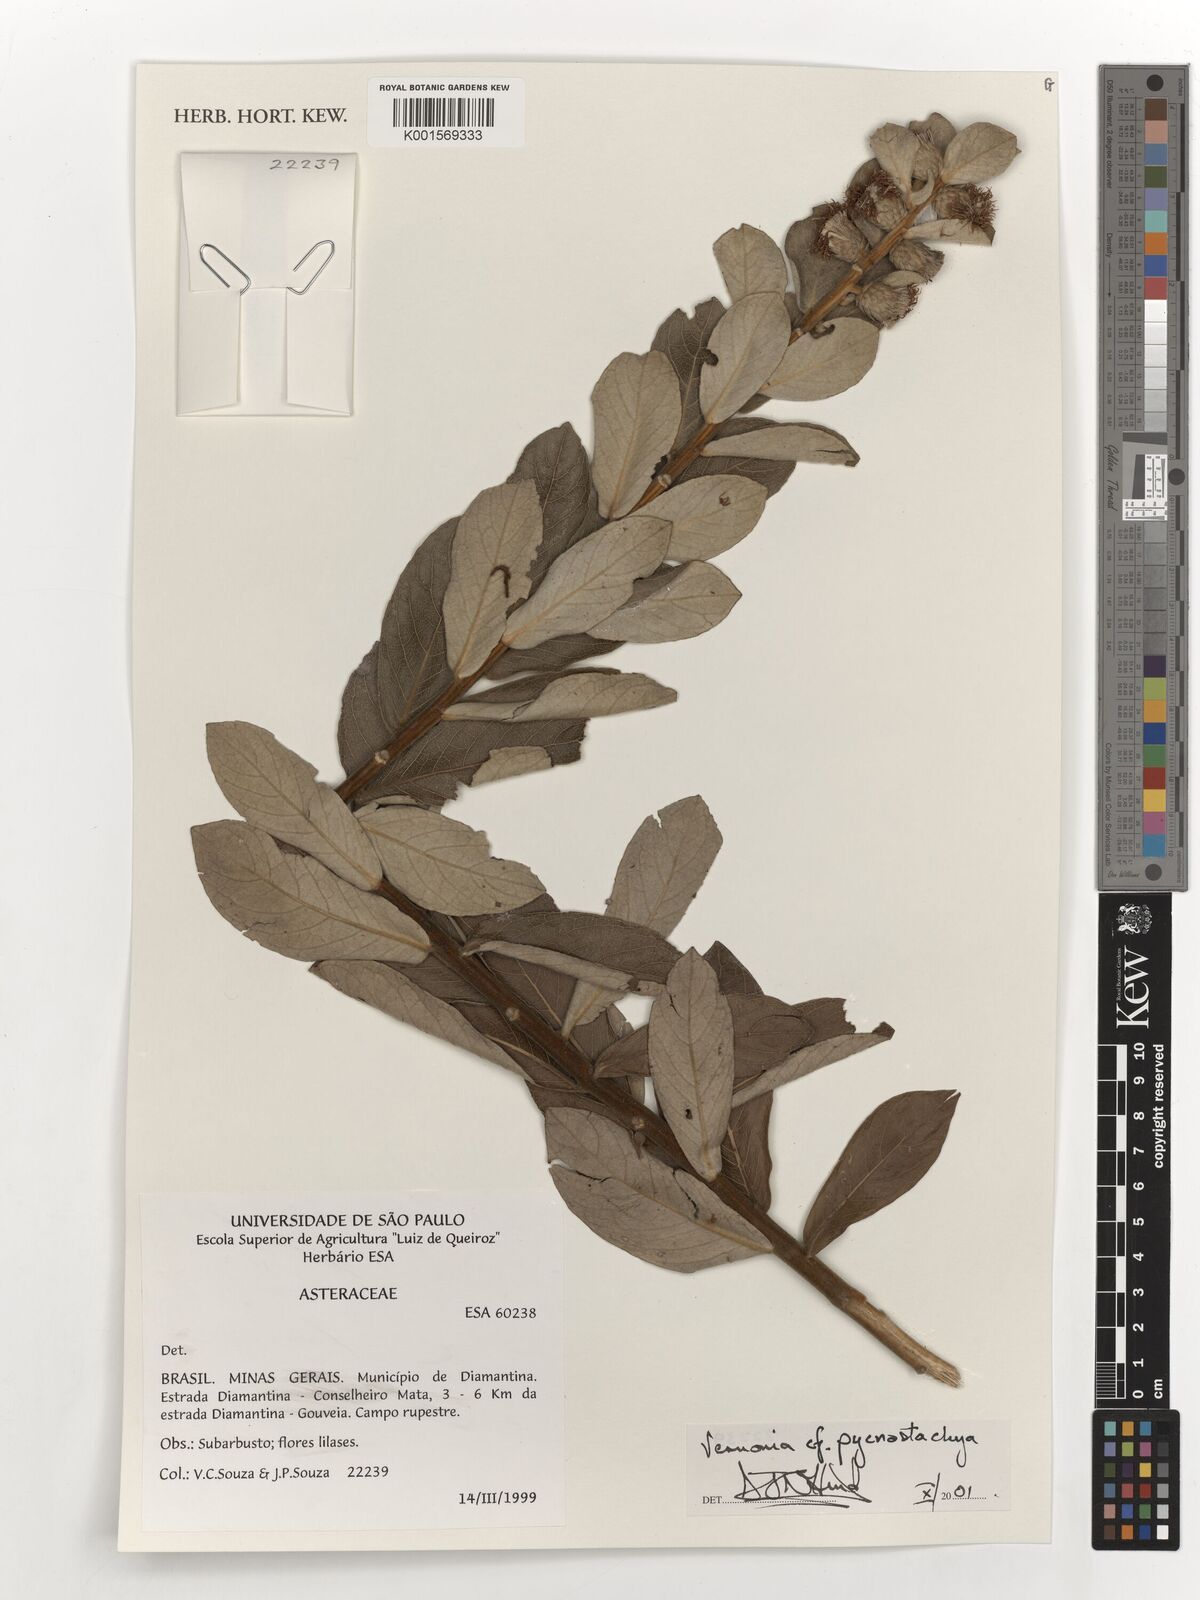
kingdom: Plantae
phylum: Tracheophyta
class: Magnoliopsida
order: Asterales
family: Asteraceae
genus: Lessingianthus
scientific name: Lessingianthus pycnostachyus
